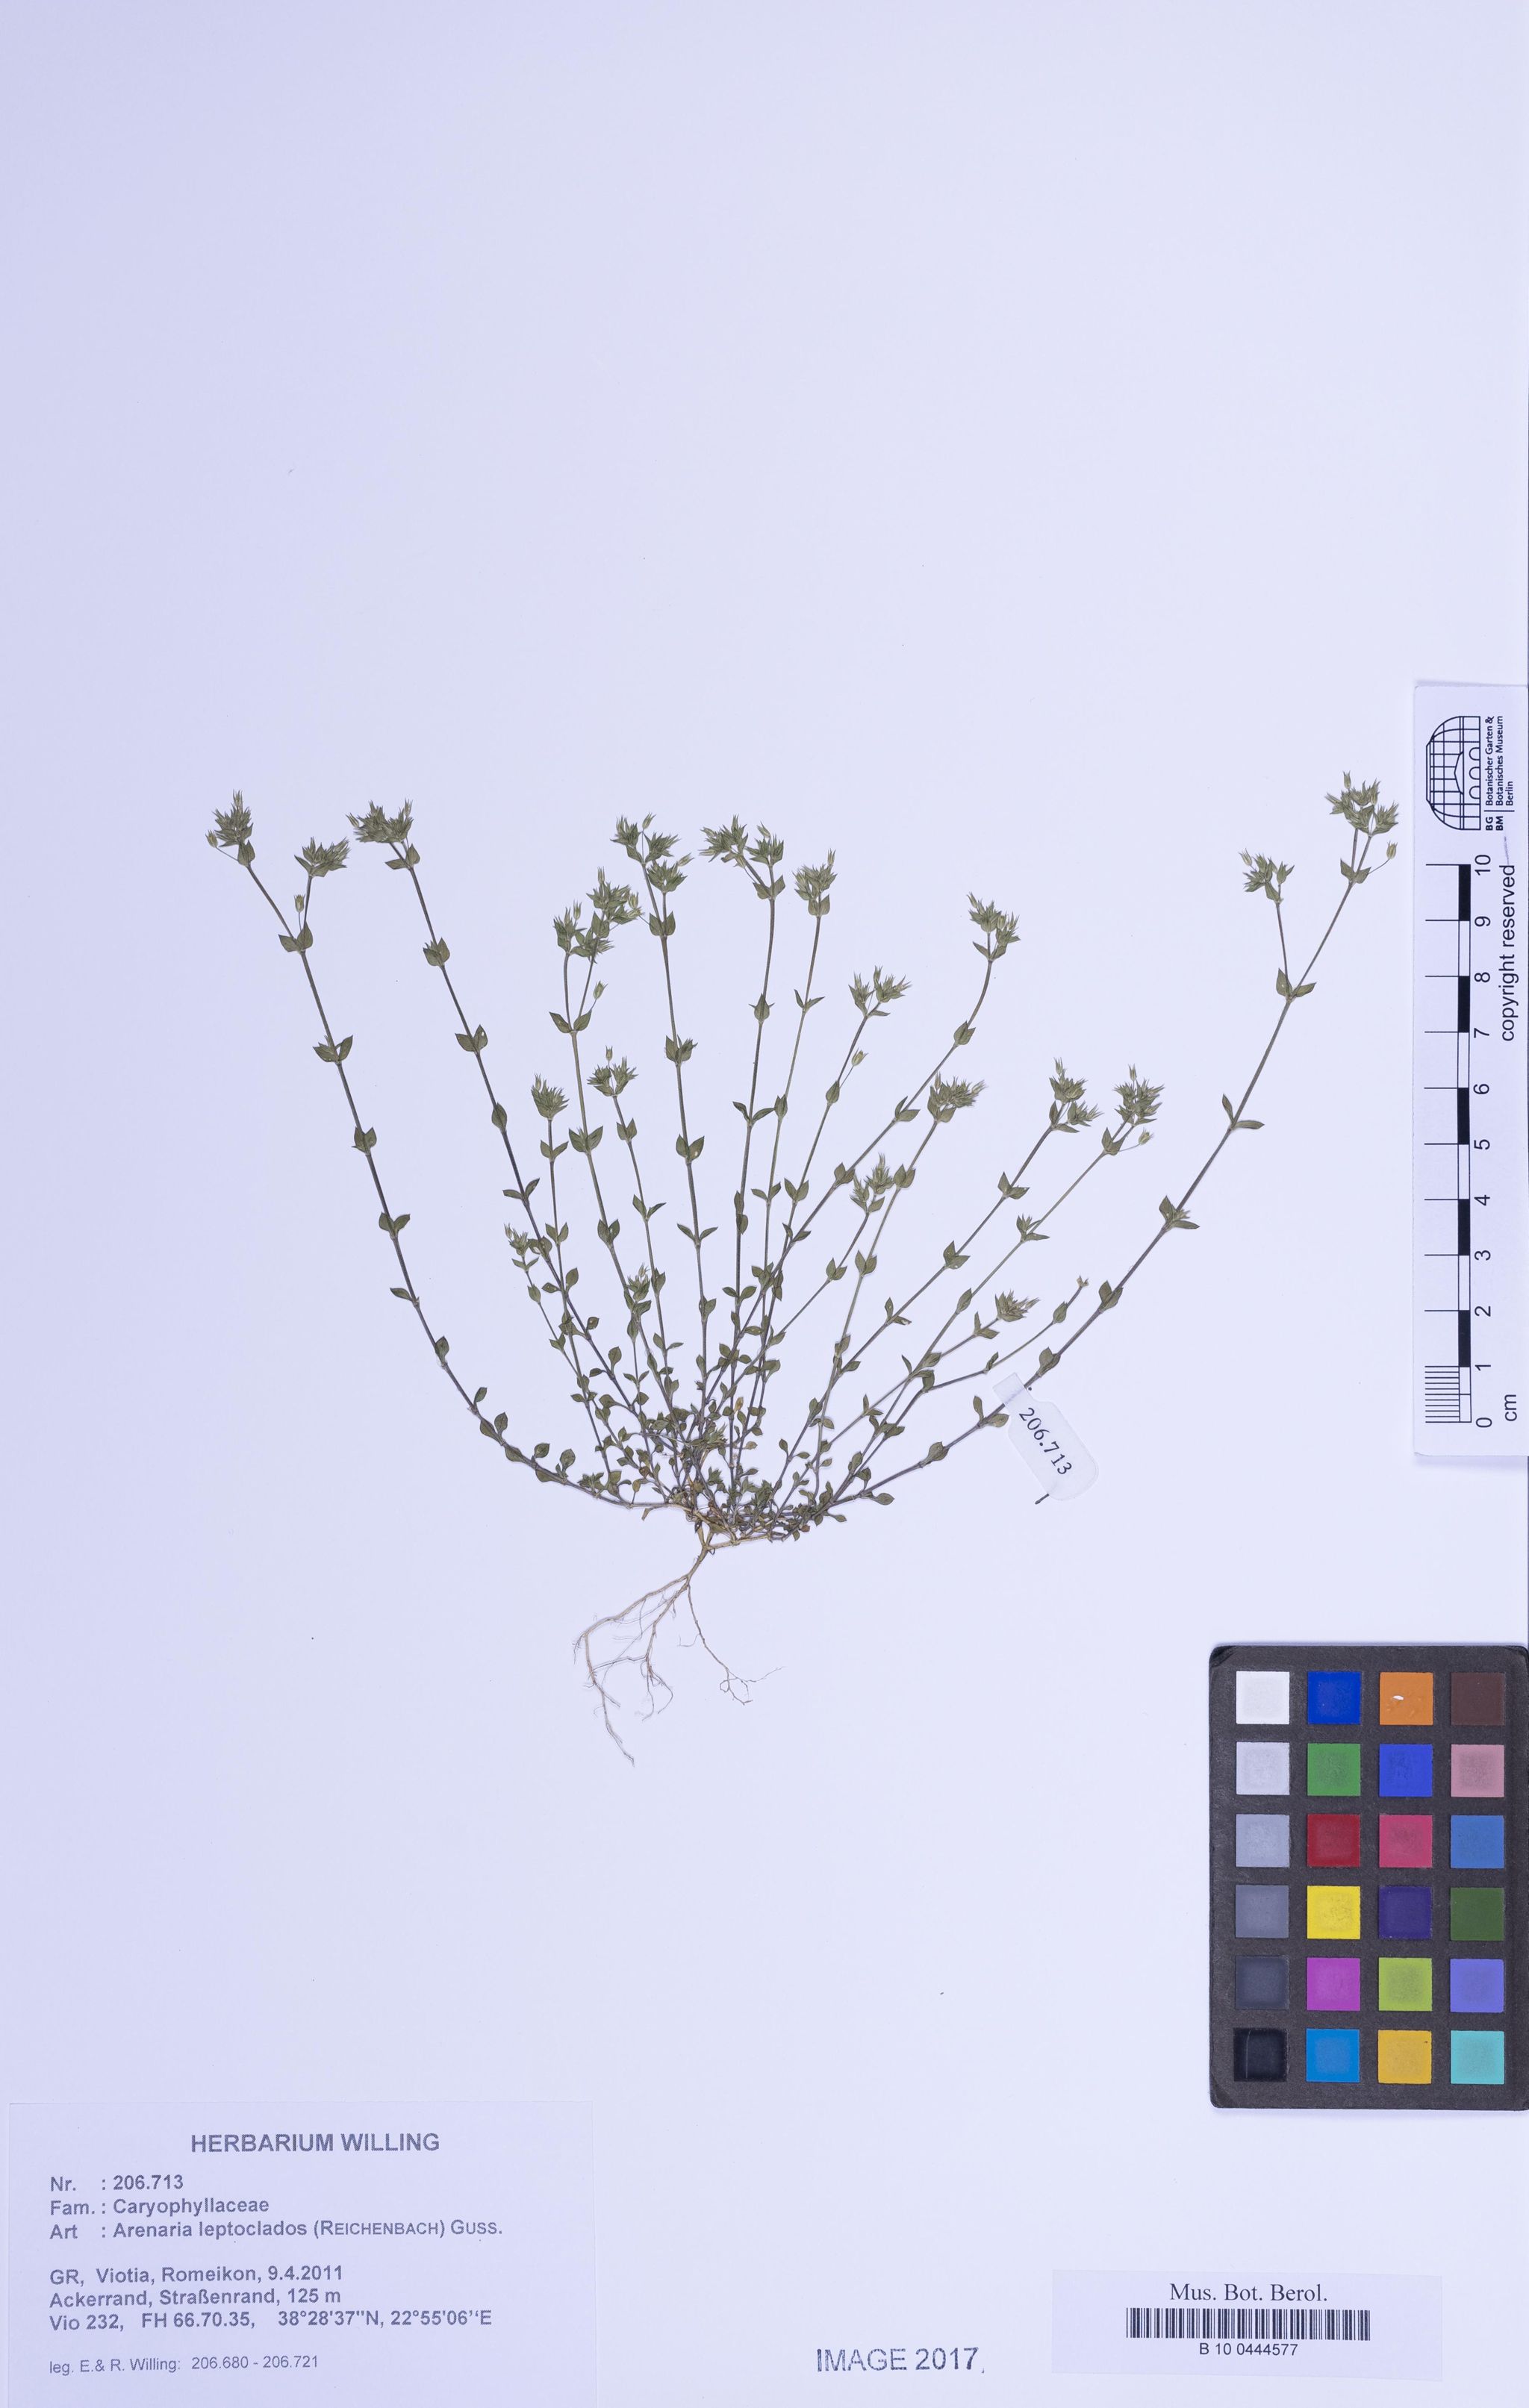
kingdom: Plantae
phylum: Tracheophyta
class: Magnoliopsida
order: Caryophyllales
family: Caryophyllaceae
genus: Arenaria
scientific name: Arenaria leptoclados
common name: Thyme-leaved sandwort
